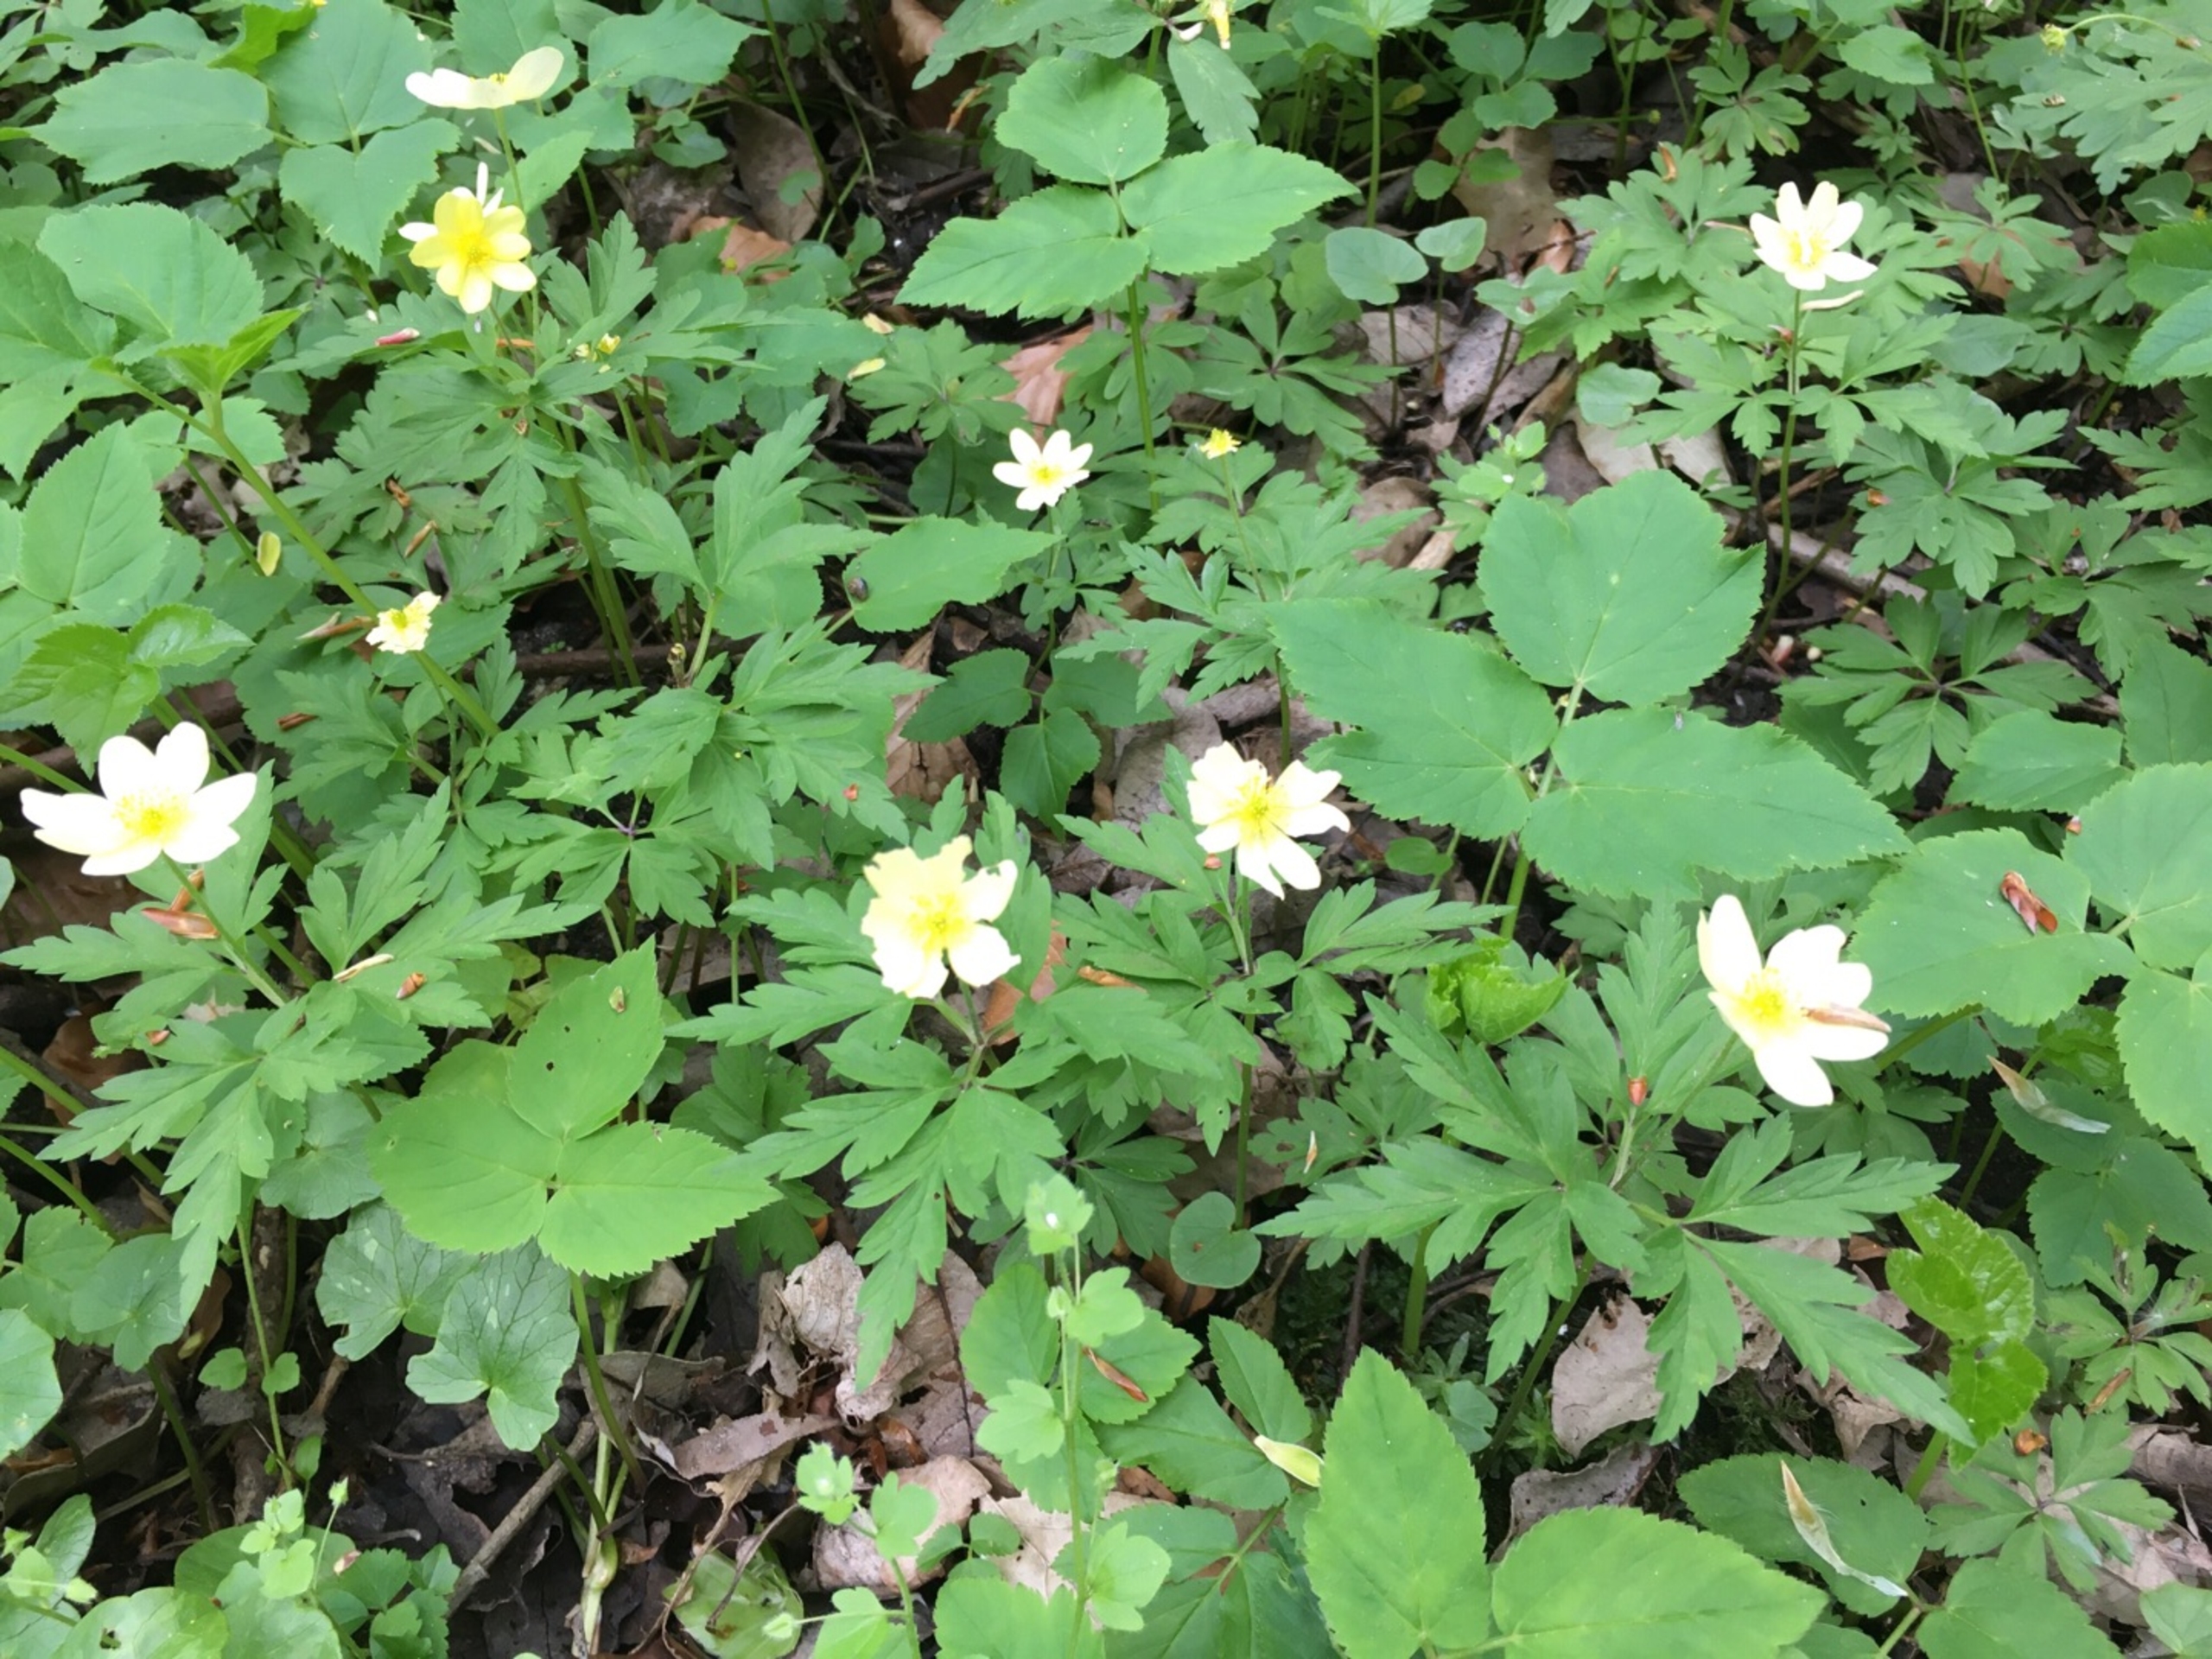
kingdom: Plantae
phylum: Tracheophyta
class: Magnoliopsida
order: Ranunculales
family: Ranunculaceae
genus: Anemone
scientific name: Anemone
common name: Svovlgul anemone
